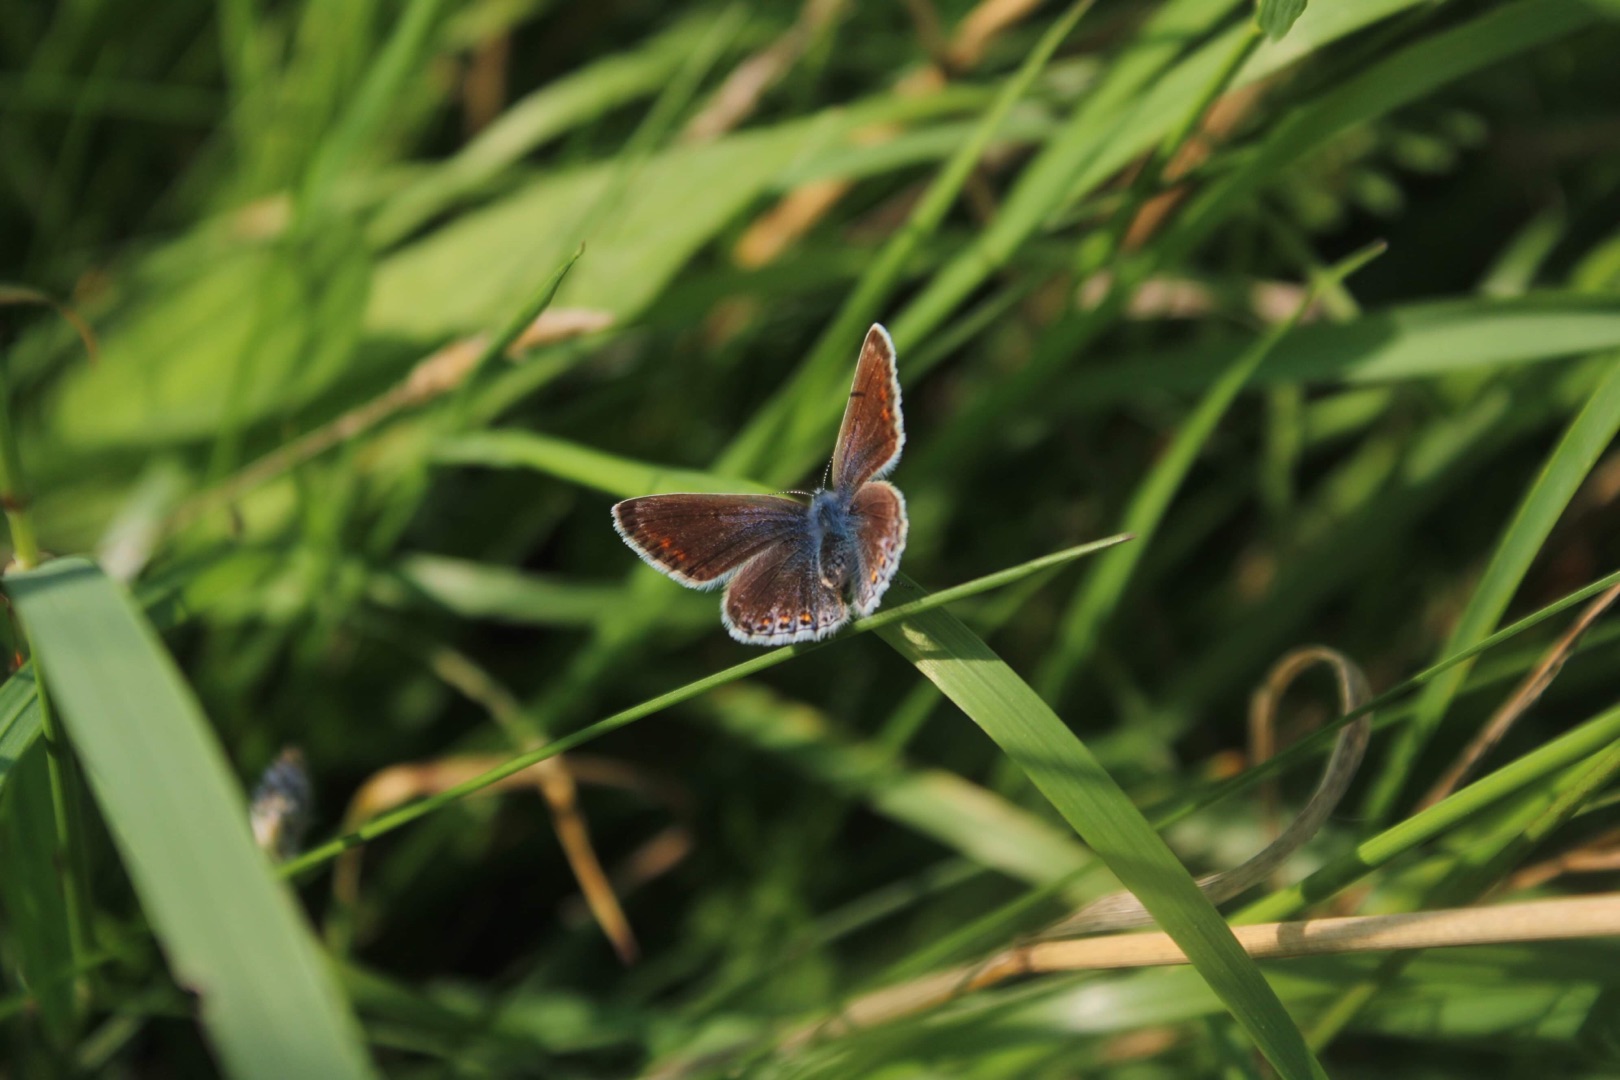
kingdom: Animalia
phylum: Arthropoda
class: Insecta
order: Lepidoptera
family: Lycaenidae
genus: Polyommatus
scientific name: Polyommatus icarus
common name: Almindelig blåfugl
